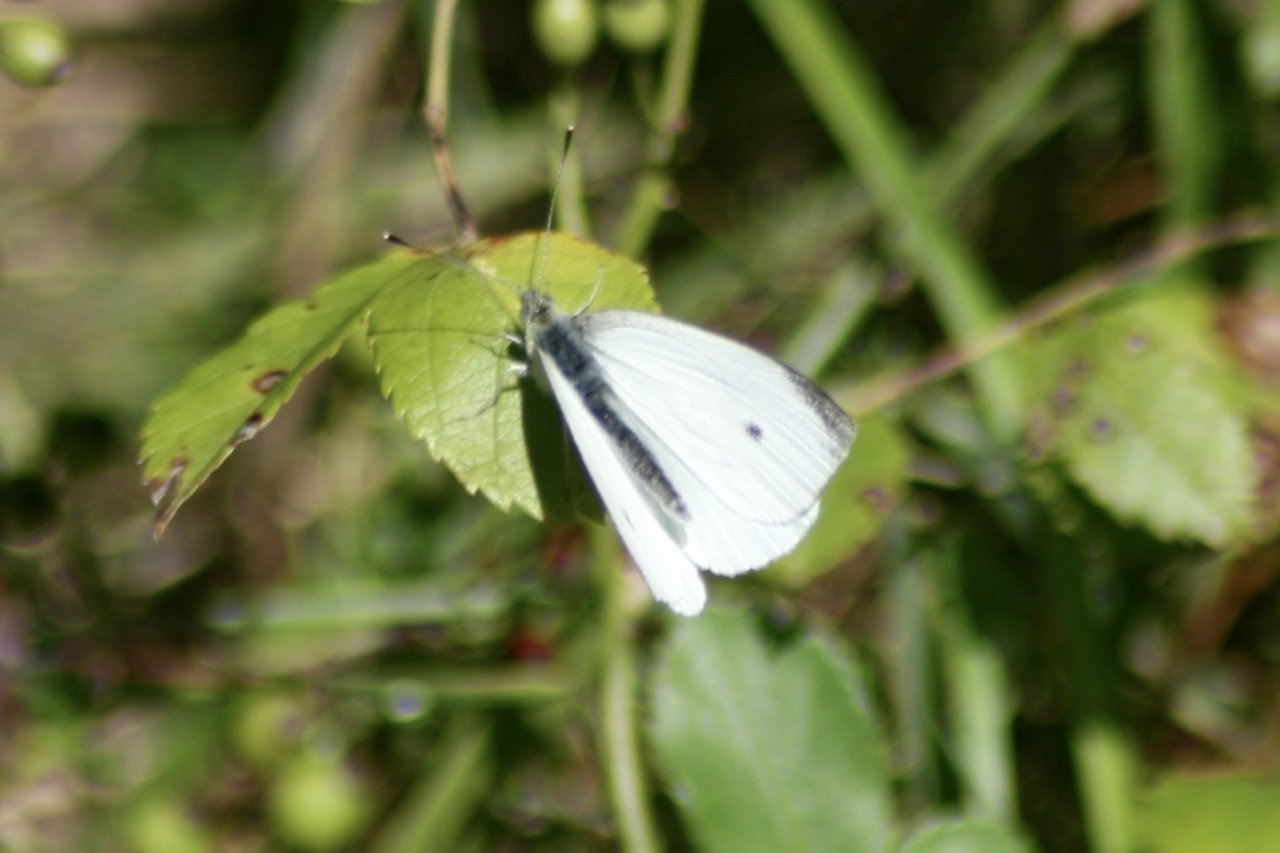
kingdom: Animalia
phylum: Arthropoda
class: Insecta
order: Lepidoptera
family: Pieridae
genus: Pieris
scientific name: Pieris rapae
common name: Cabbage White
